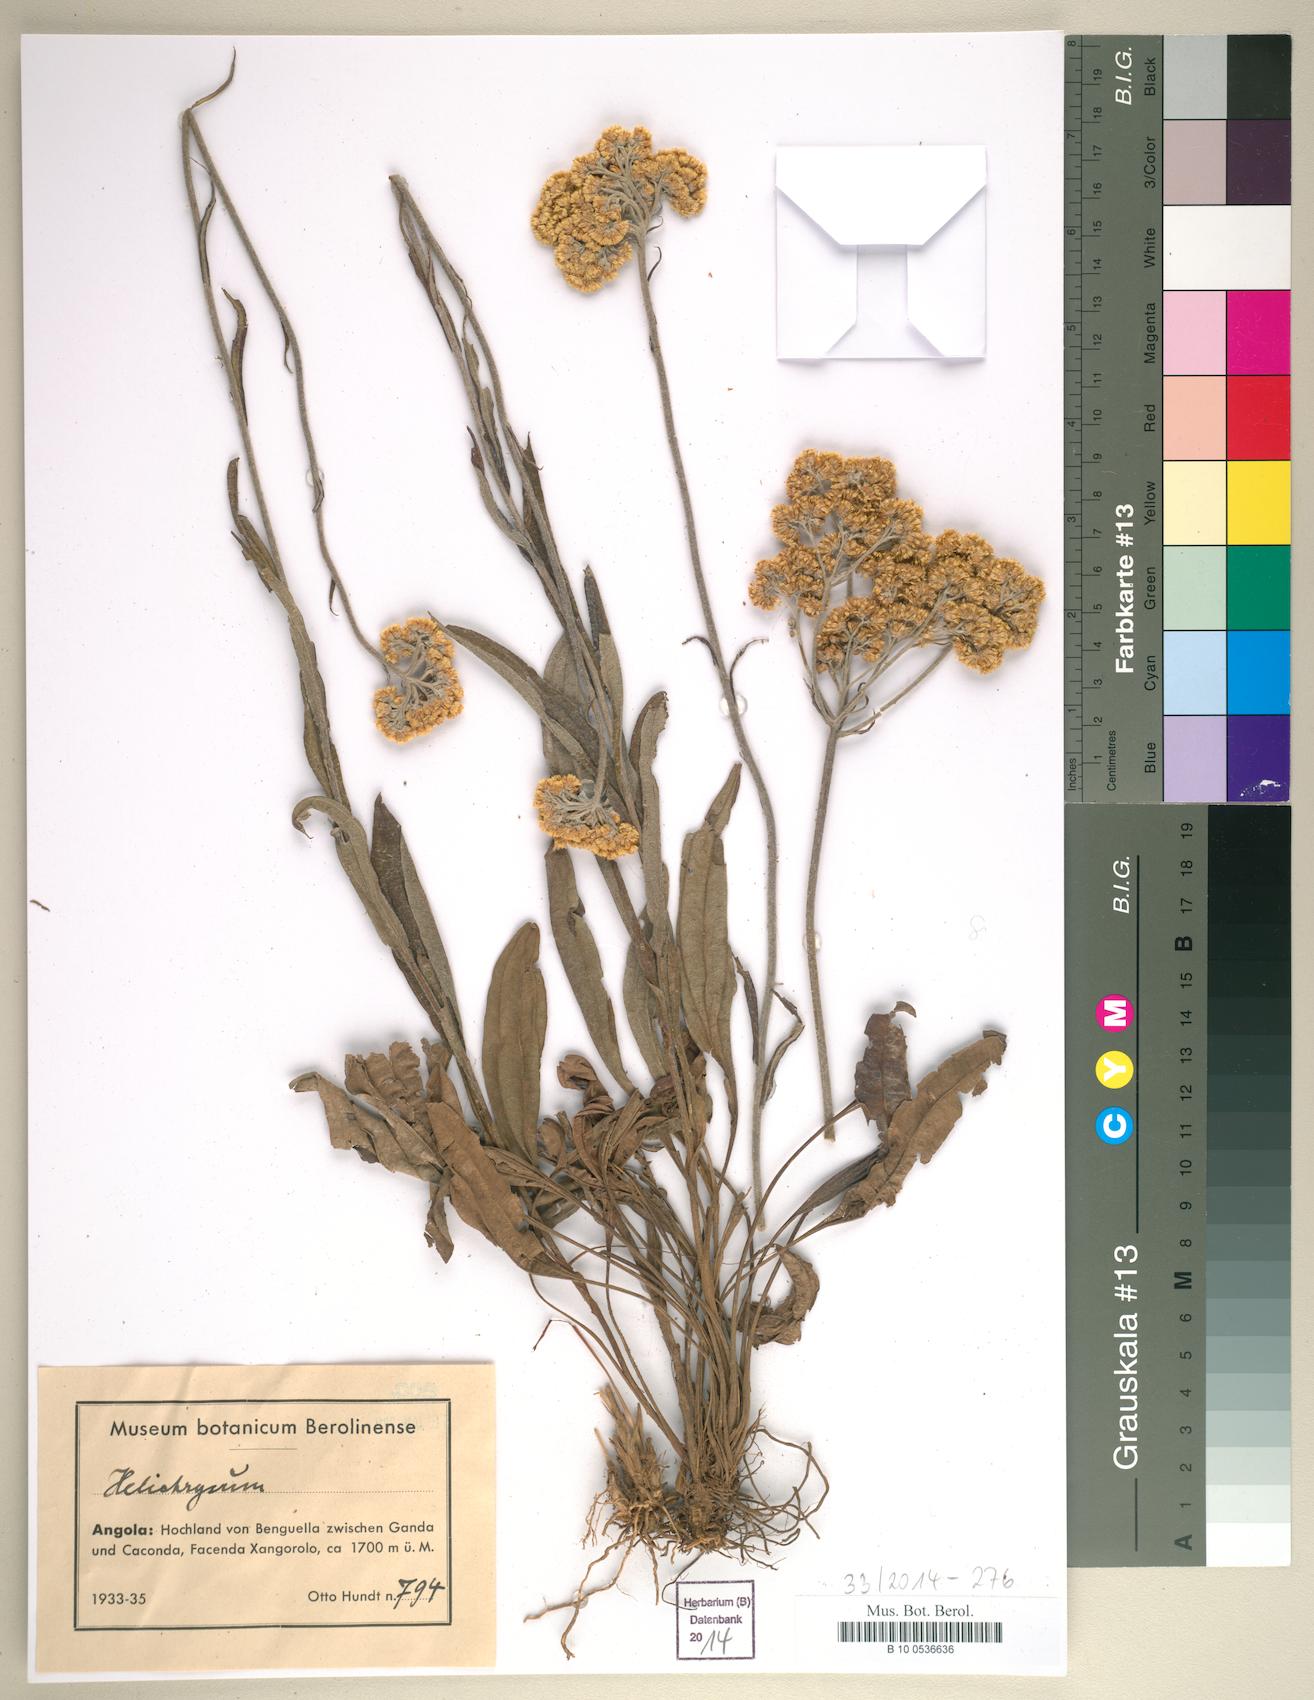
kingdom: Plantae
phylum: Tracheophyta
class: Magnoliopsida
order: Asterales
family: Asteraceae
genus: Helichrysum
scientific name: Helichrysum
